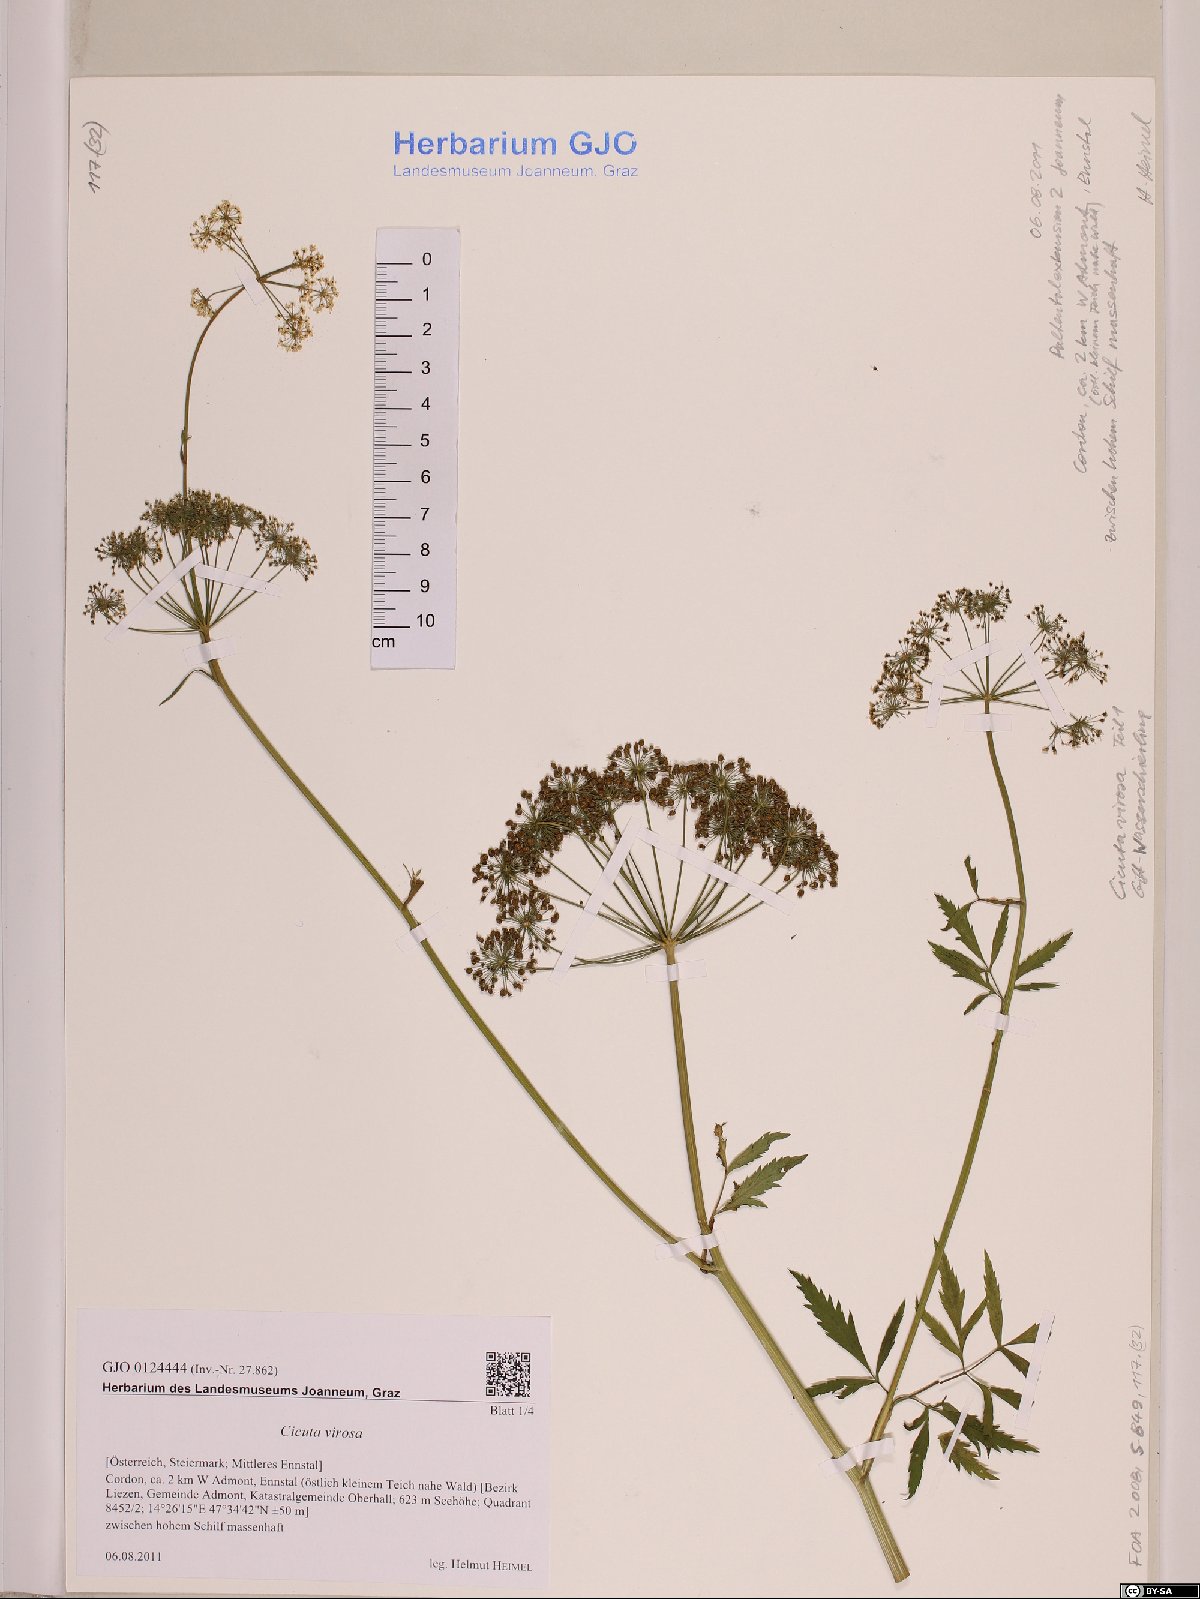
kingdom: Plantae
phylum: Tracheophyta
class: Magnoliopsida
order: Apiales
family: Apiaceae
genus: Cicuta
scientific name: Cicuta virosa
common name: Cowbane
